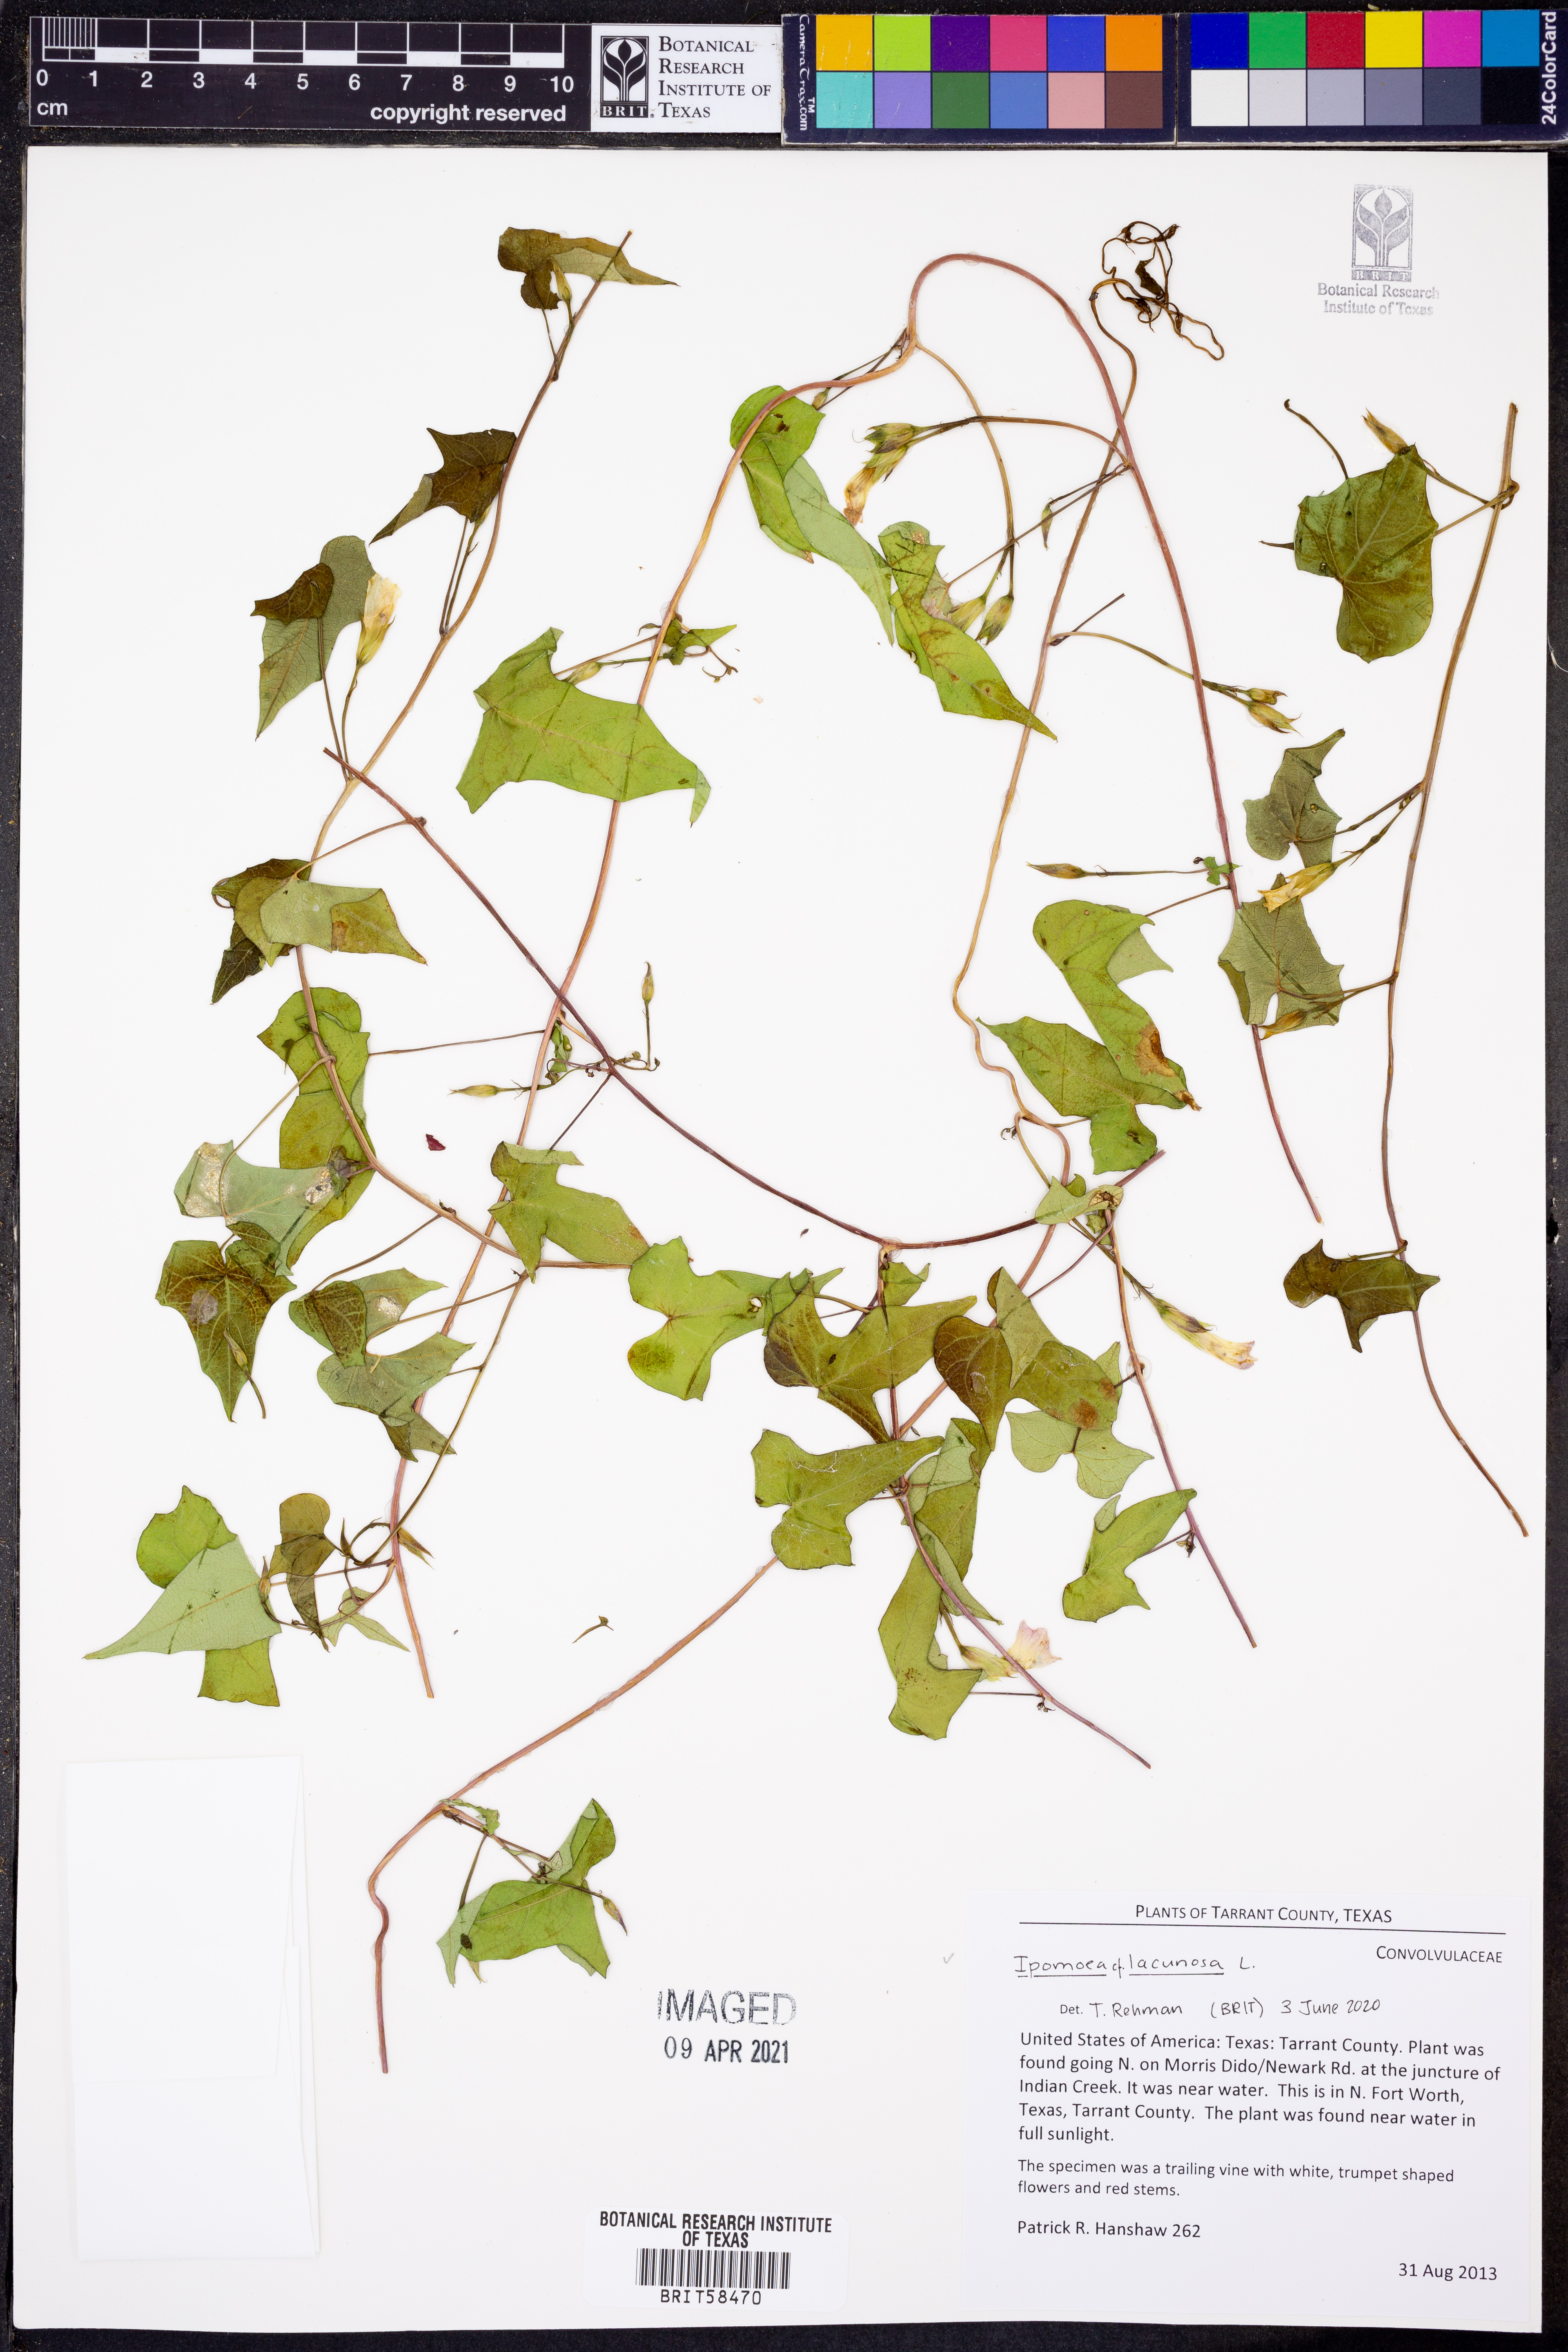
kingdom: Plantae
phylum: Tracheophyta
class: Magnoliopsida
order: Solanales
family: Convolvulaceae
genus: Ipomoea
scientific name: Ipomoea lacunosa
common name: White morning-glory
